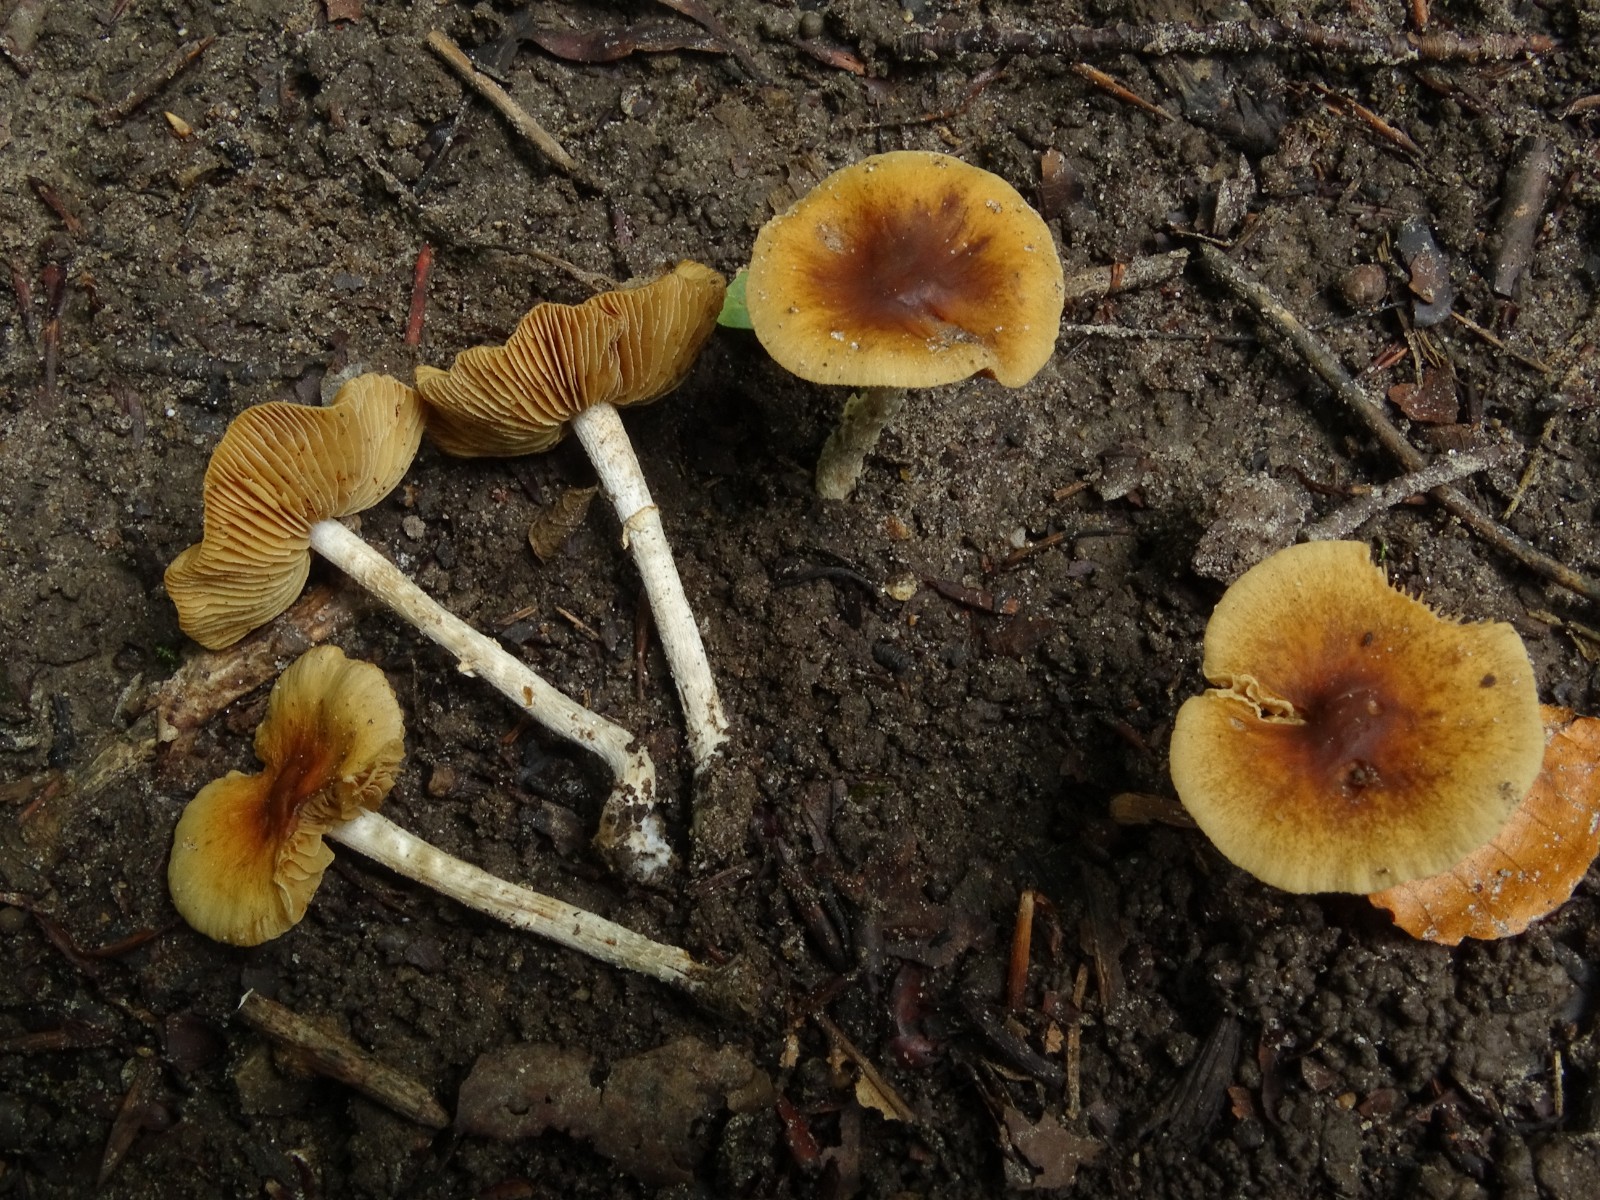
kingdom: Fungi
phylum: Basidiomycota
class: Agaricomycetes
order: Agaricales
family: Bolbitiaceae
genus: Conocybe
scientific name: Conocybe arrhenii
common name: ring-dansehat
